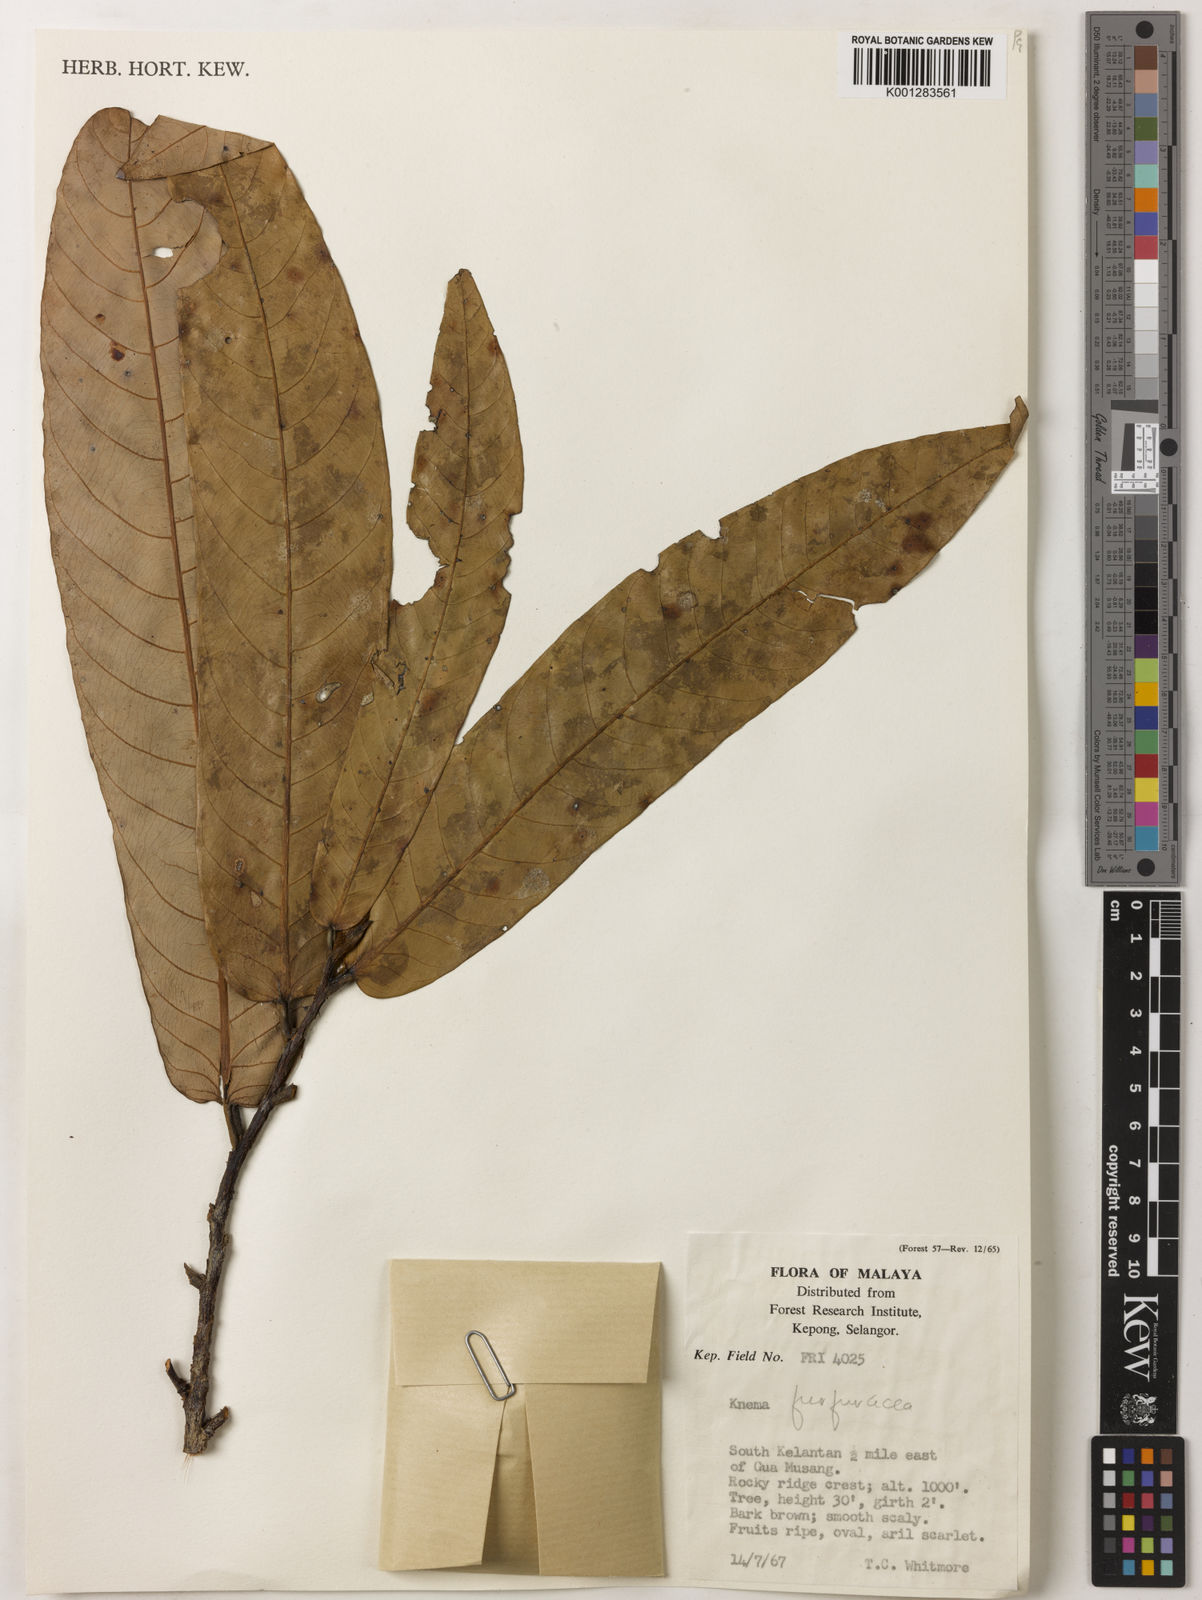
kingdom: Plantae
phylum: Tracheophyta
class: Magnoliopsida
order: Magnoliales
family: Myristicaceae
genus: Knema
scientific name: Knema furfuracea
